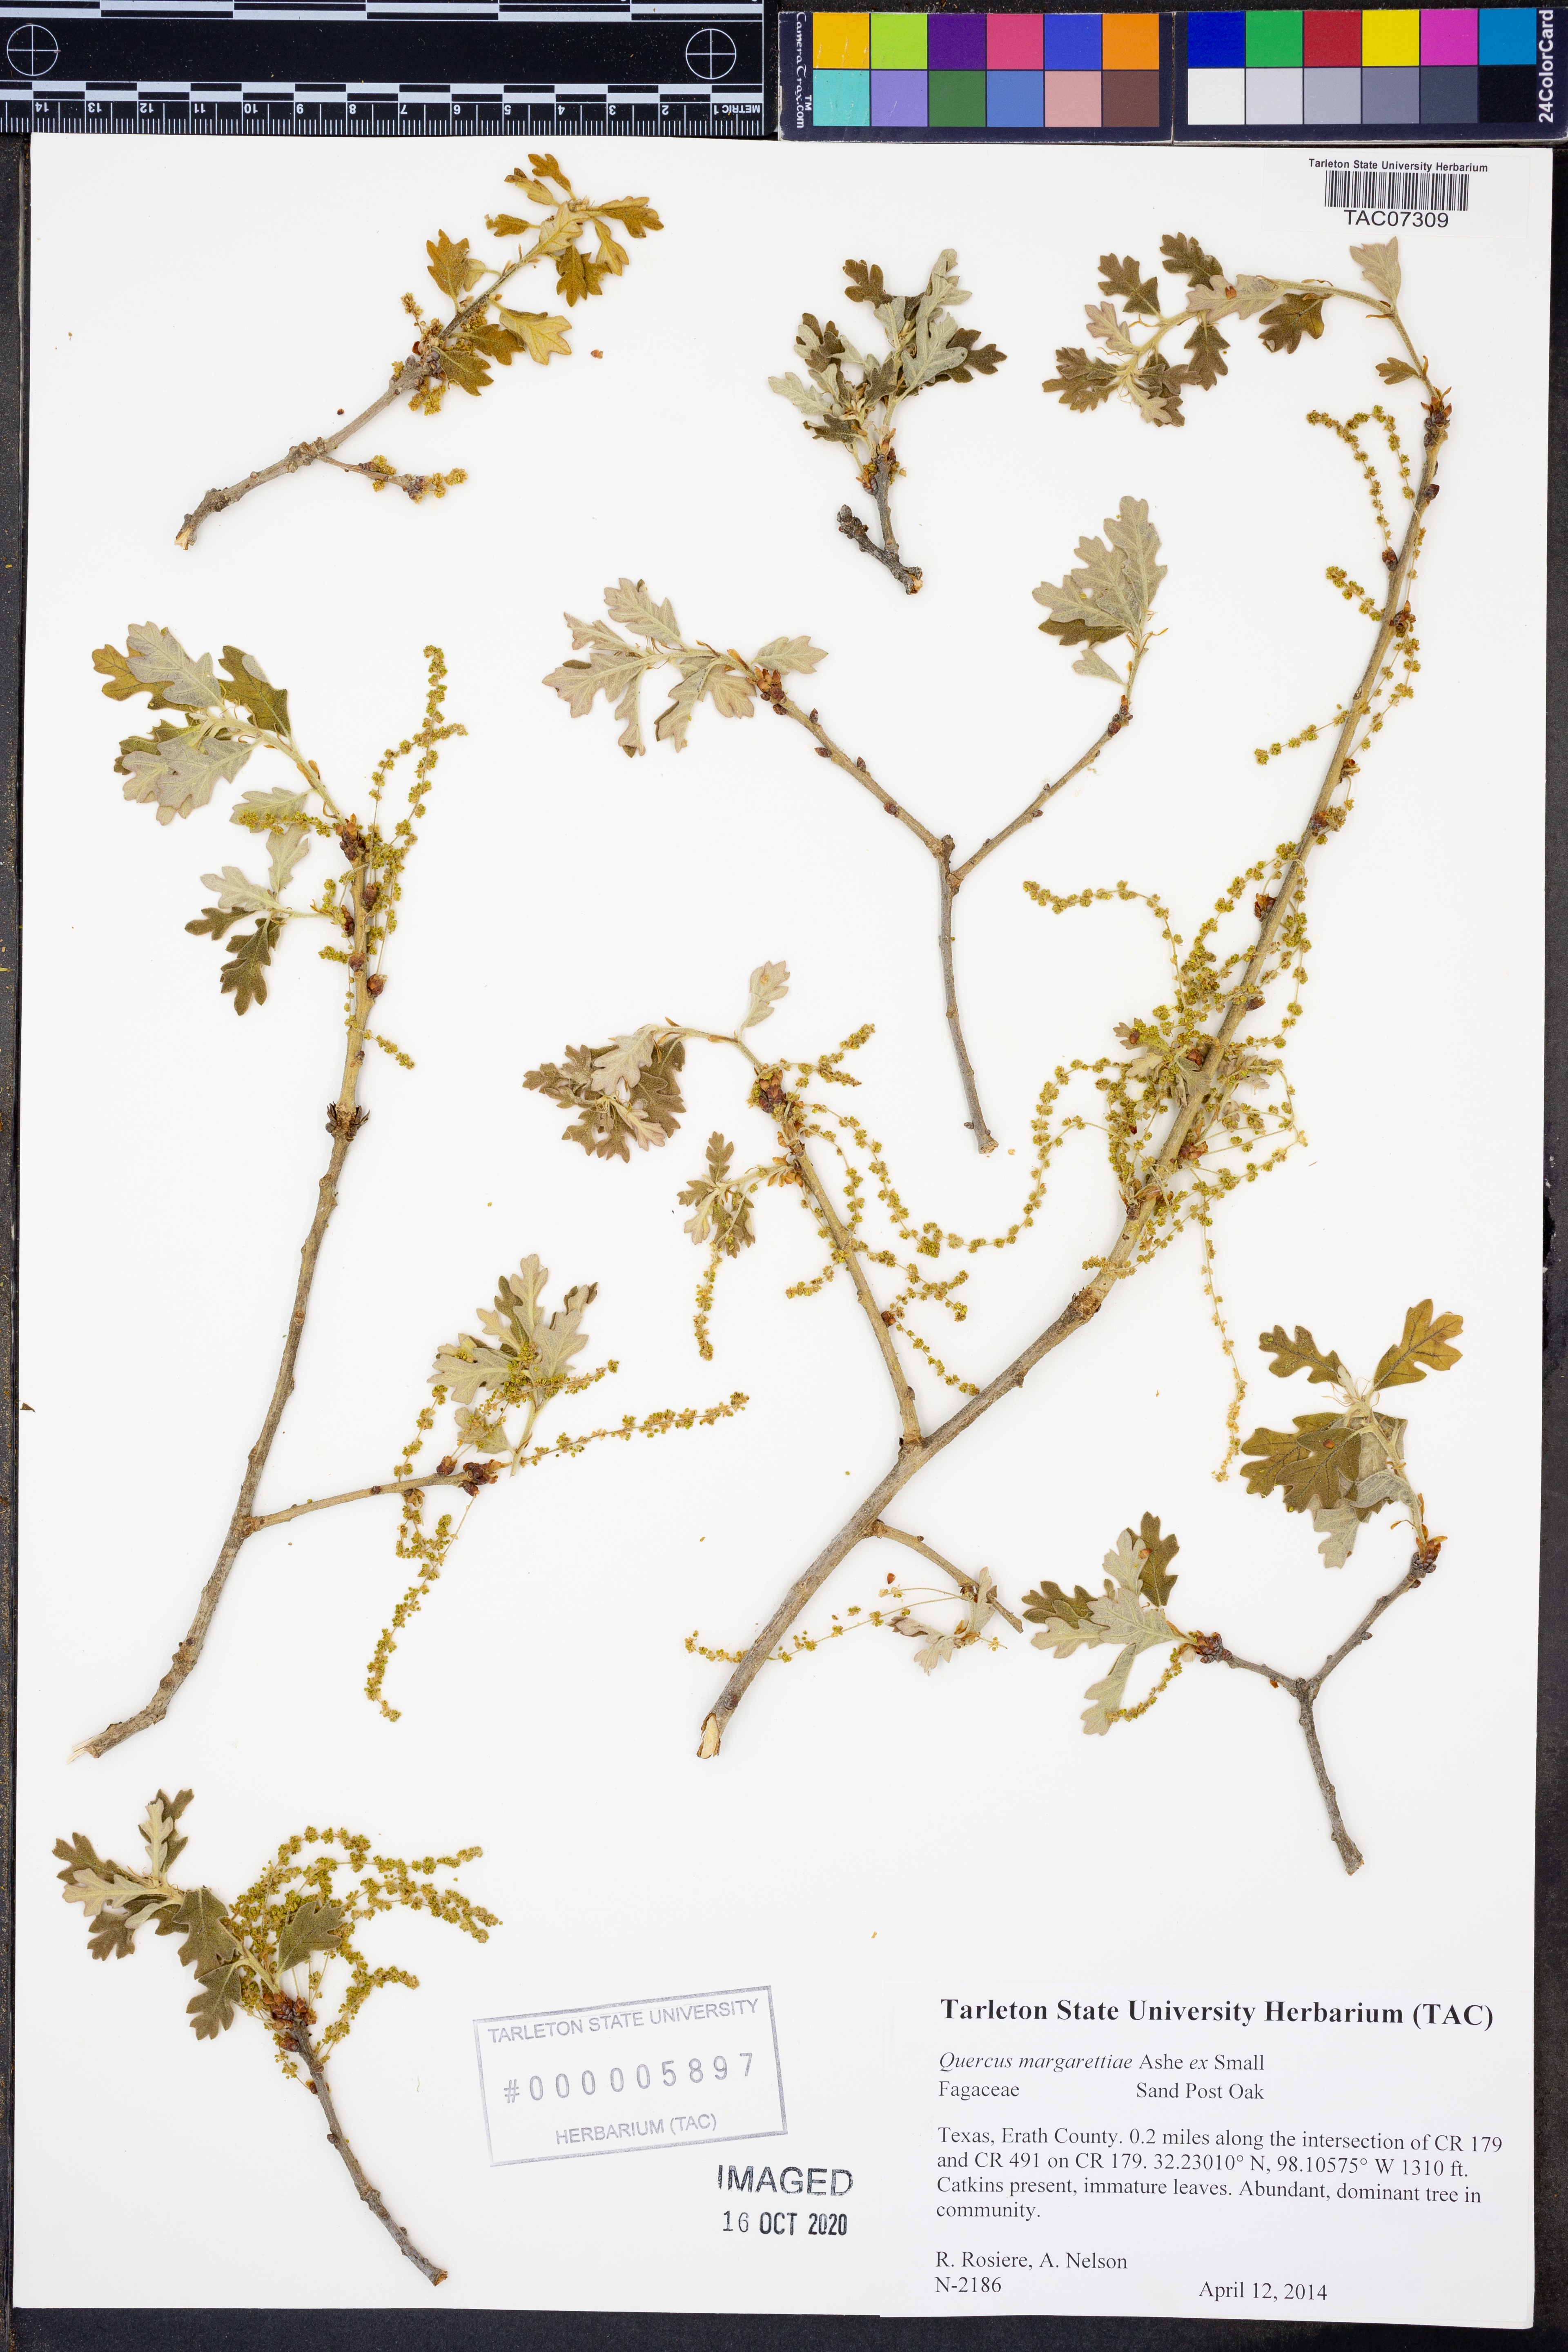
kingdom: Plantae
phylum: Tracheophyta
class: Magnoliopsida
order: Fagales
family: Fagaceae
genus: Quercus
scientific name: Quercus margaretiae
